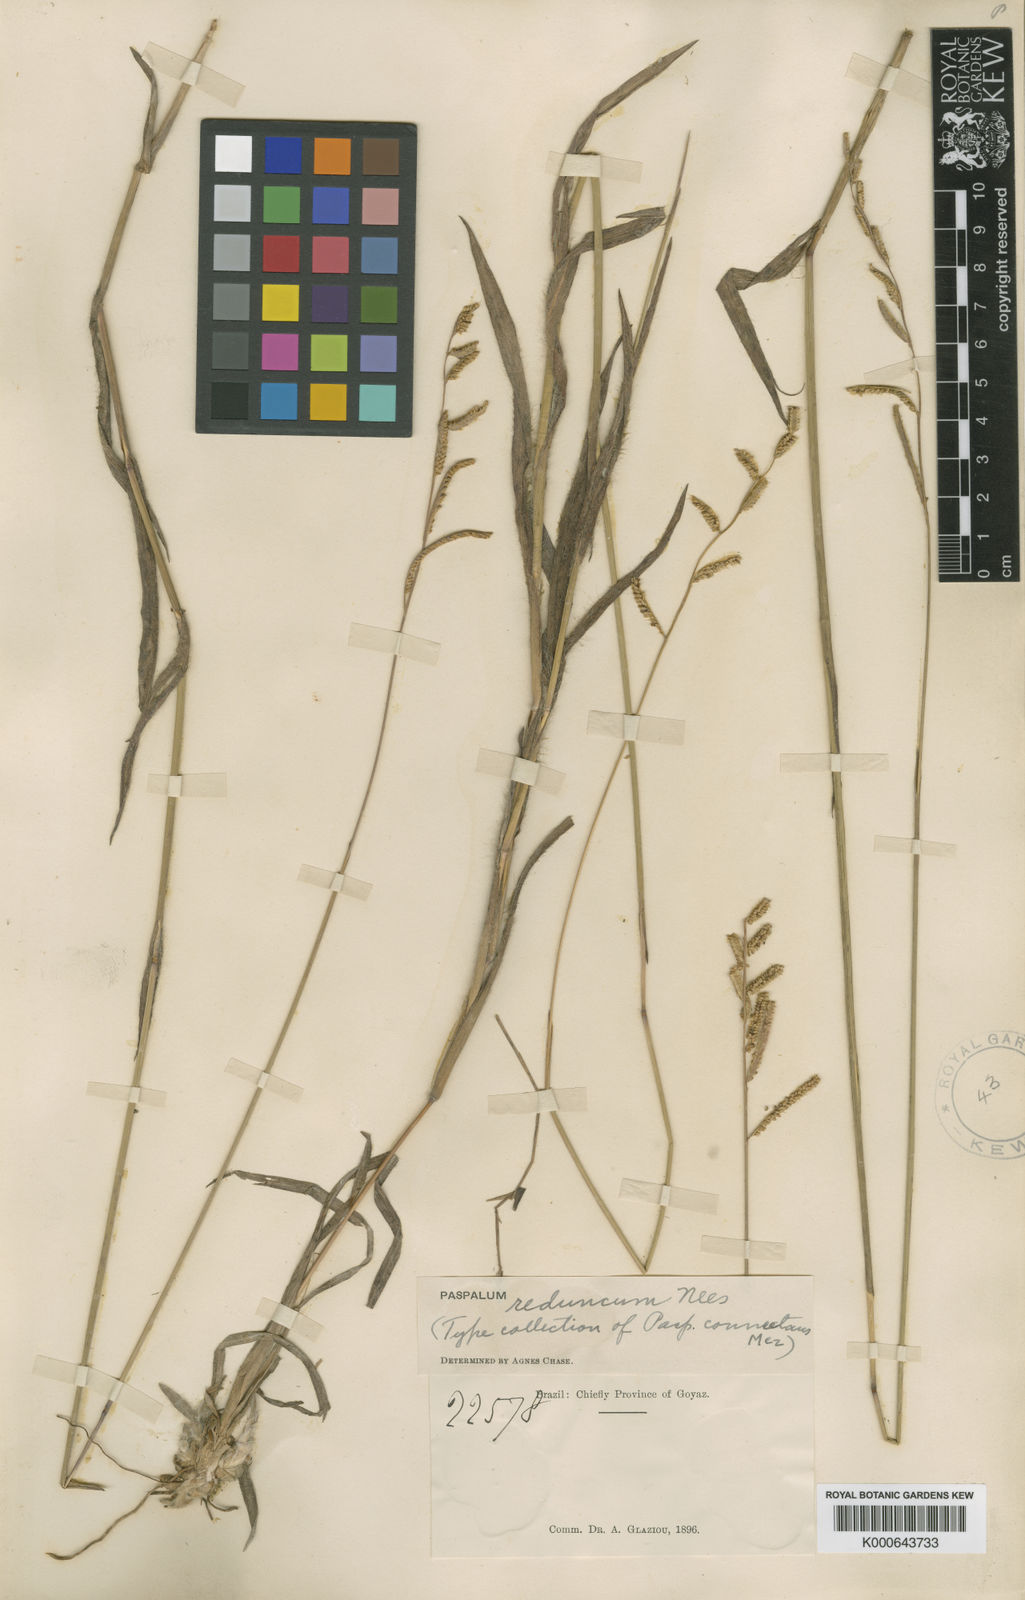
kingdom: Plantae
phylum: Tracheophyta
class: Liliopsida
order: Poales
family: Poaceae
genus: Paspalum
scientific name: Paspalum reduncum
